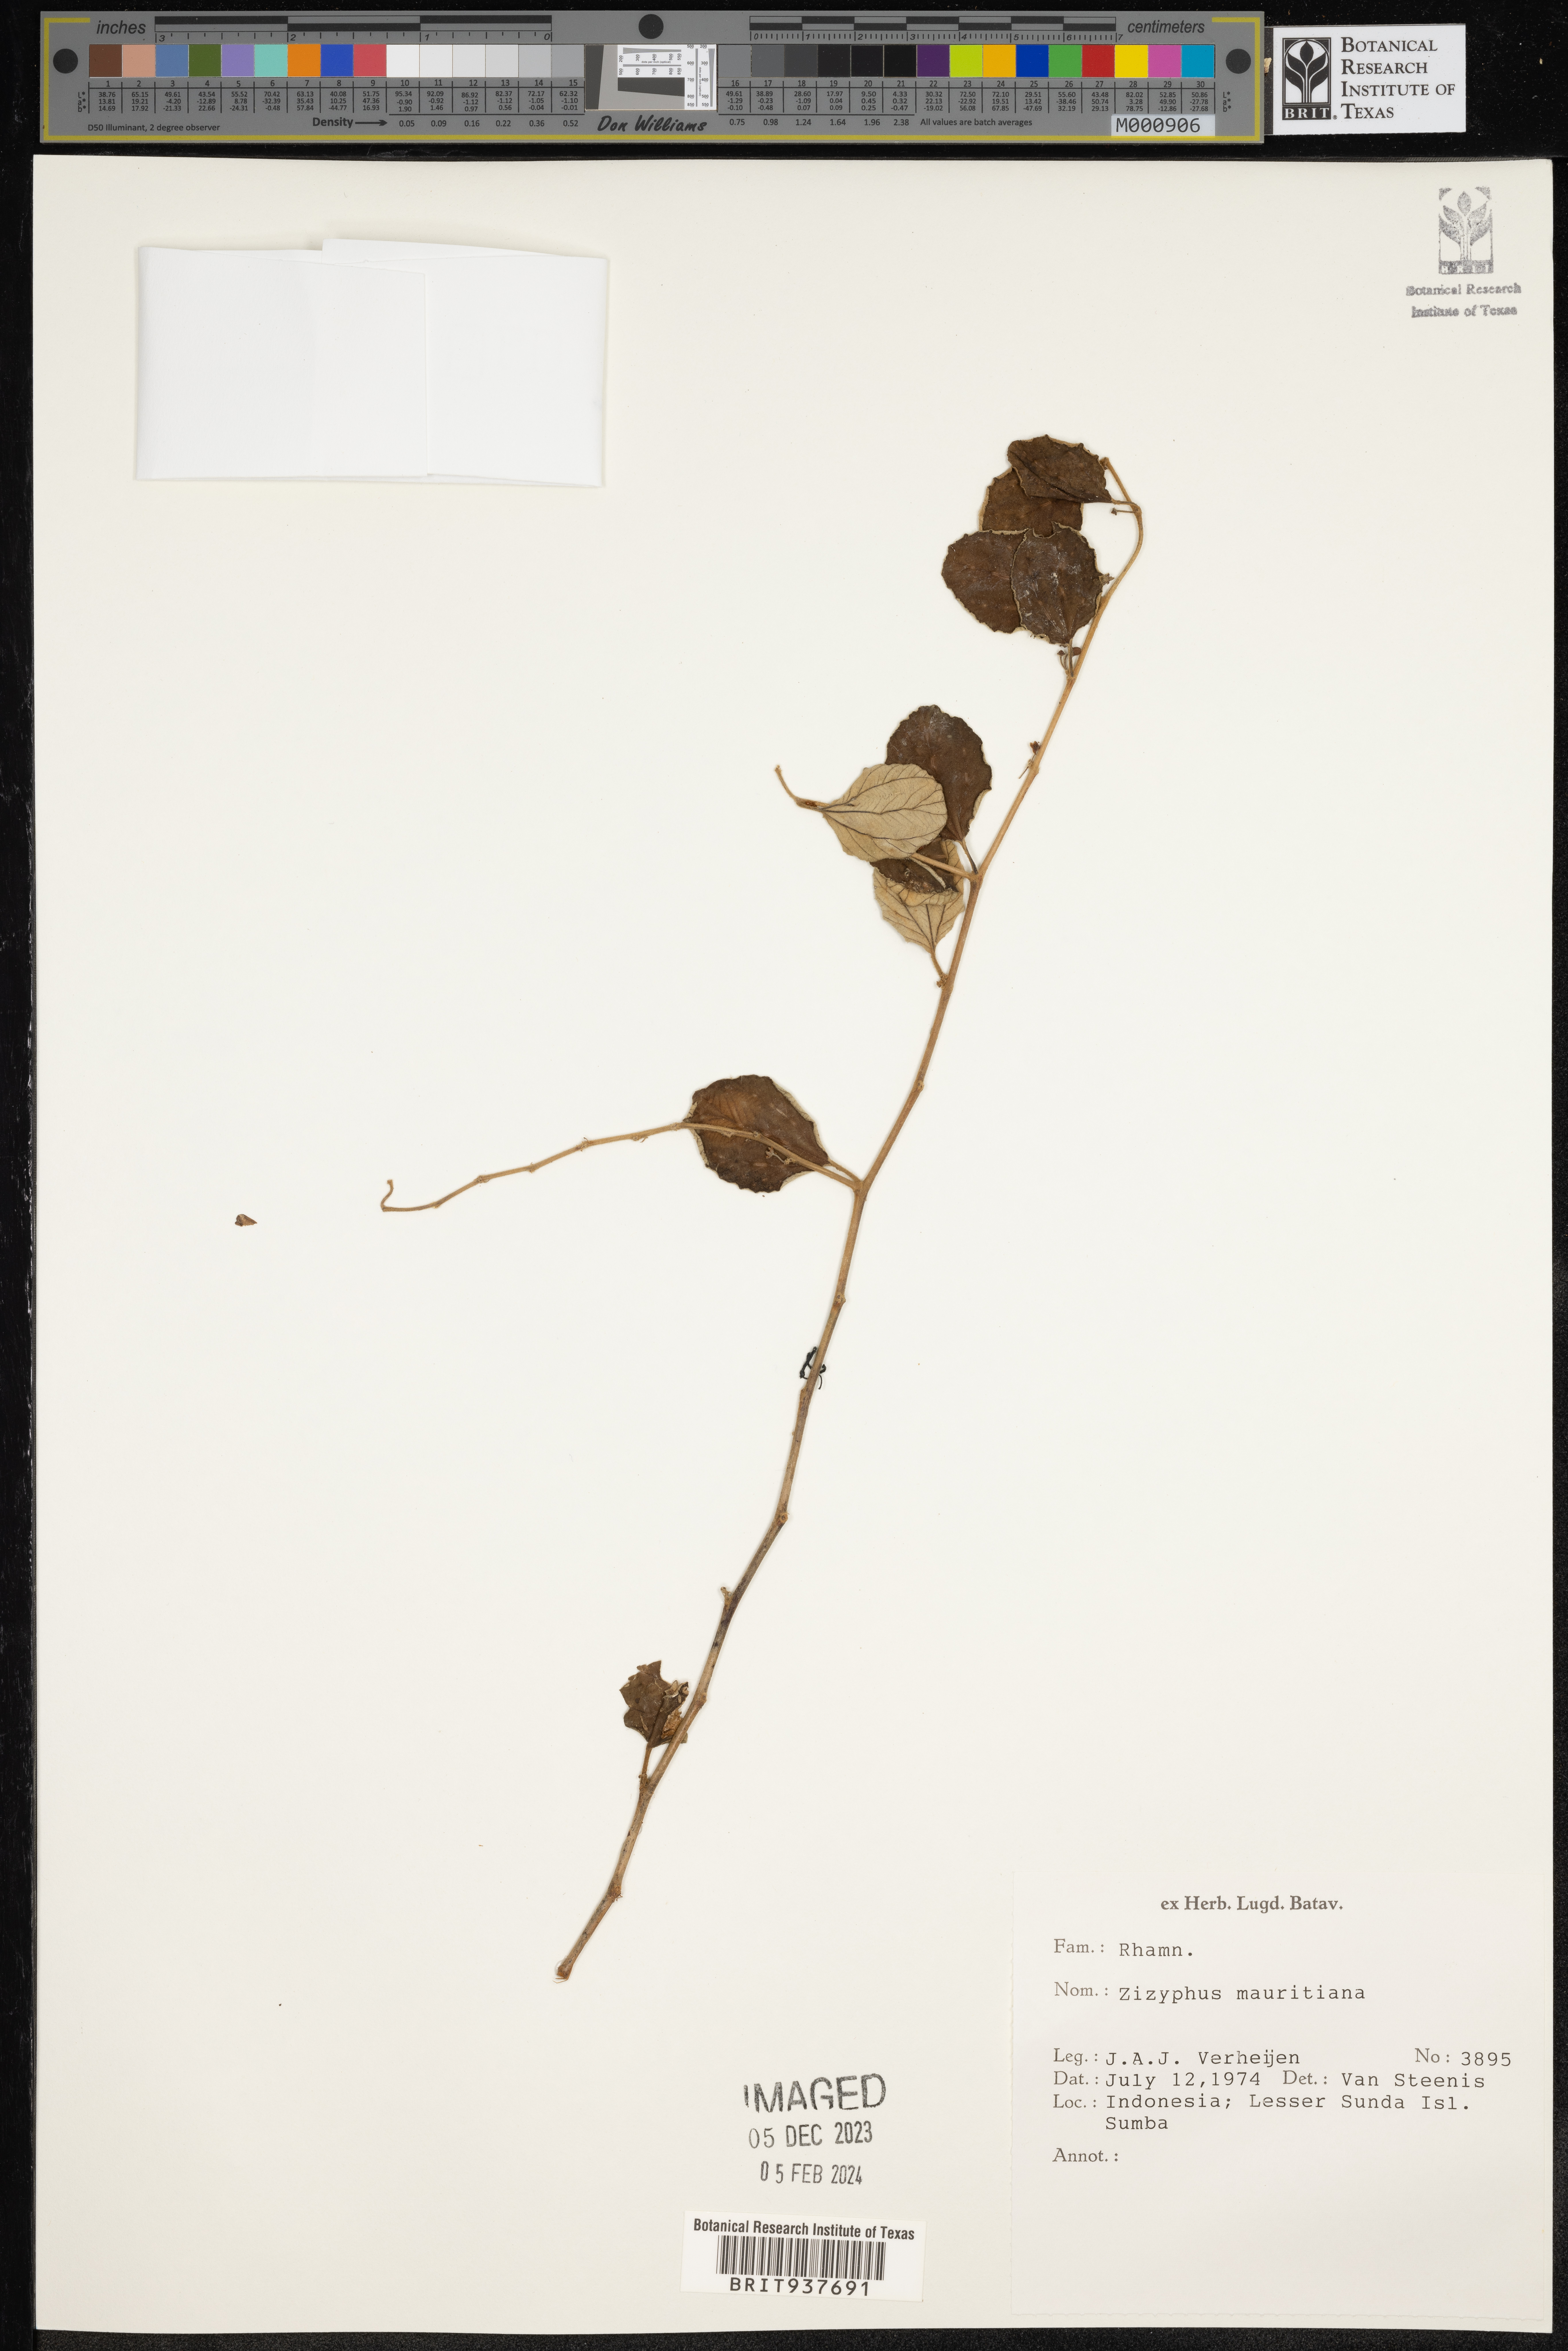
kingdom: Plantae
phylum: Tracheophyta
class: Magnoliopsida
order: Lamiales
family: Acanthaceae
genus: Adhatoda
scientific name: Adhatoda
